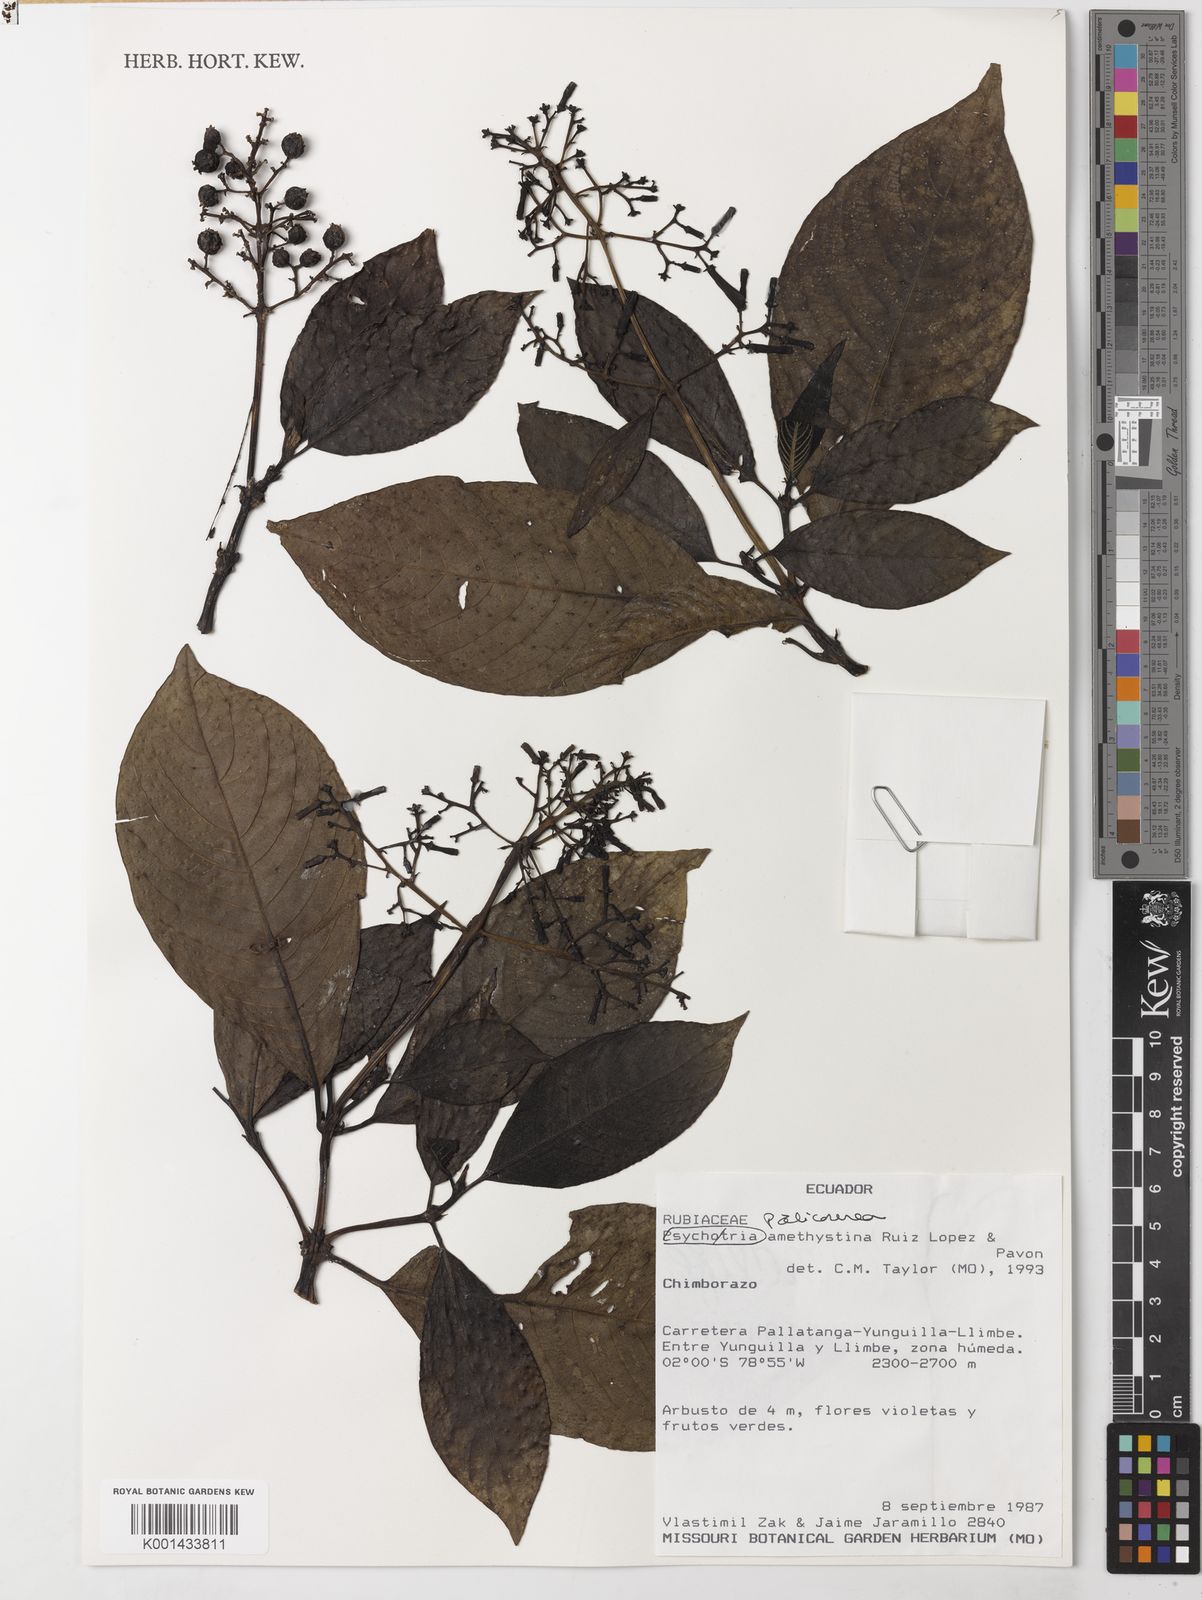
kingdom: Plantae
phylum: Tracheophyta
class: Magnoliopsida
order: Gentianales
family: Rubiaceae
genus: Palicourea
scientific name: Palicourea amethystina
